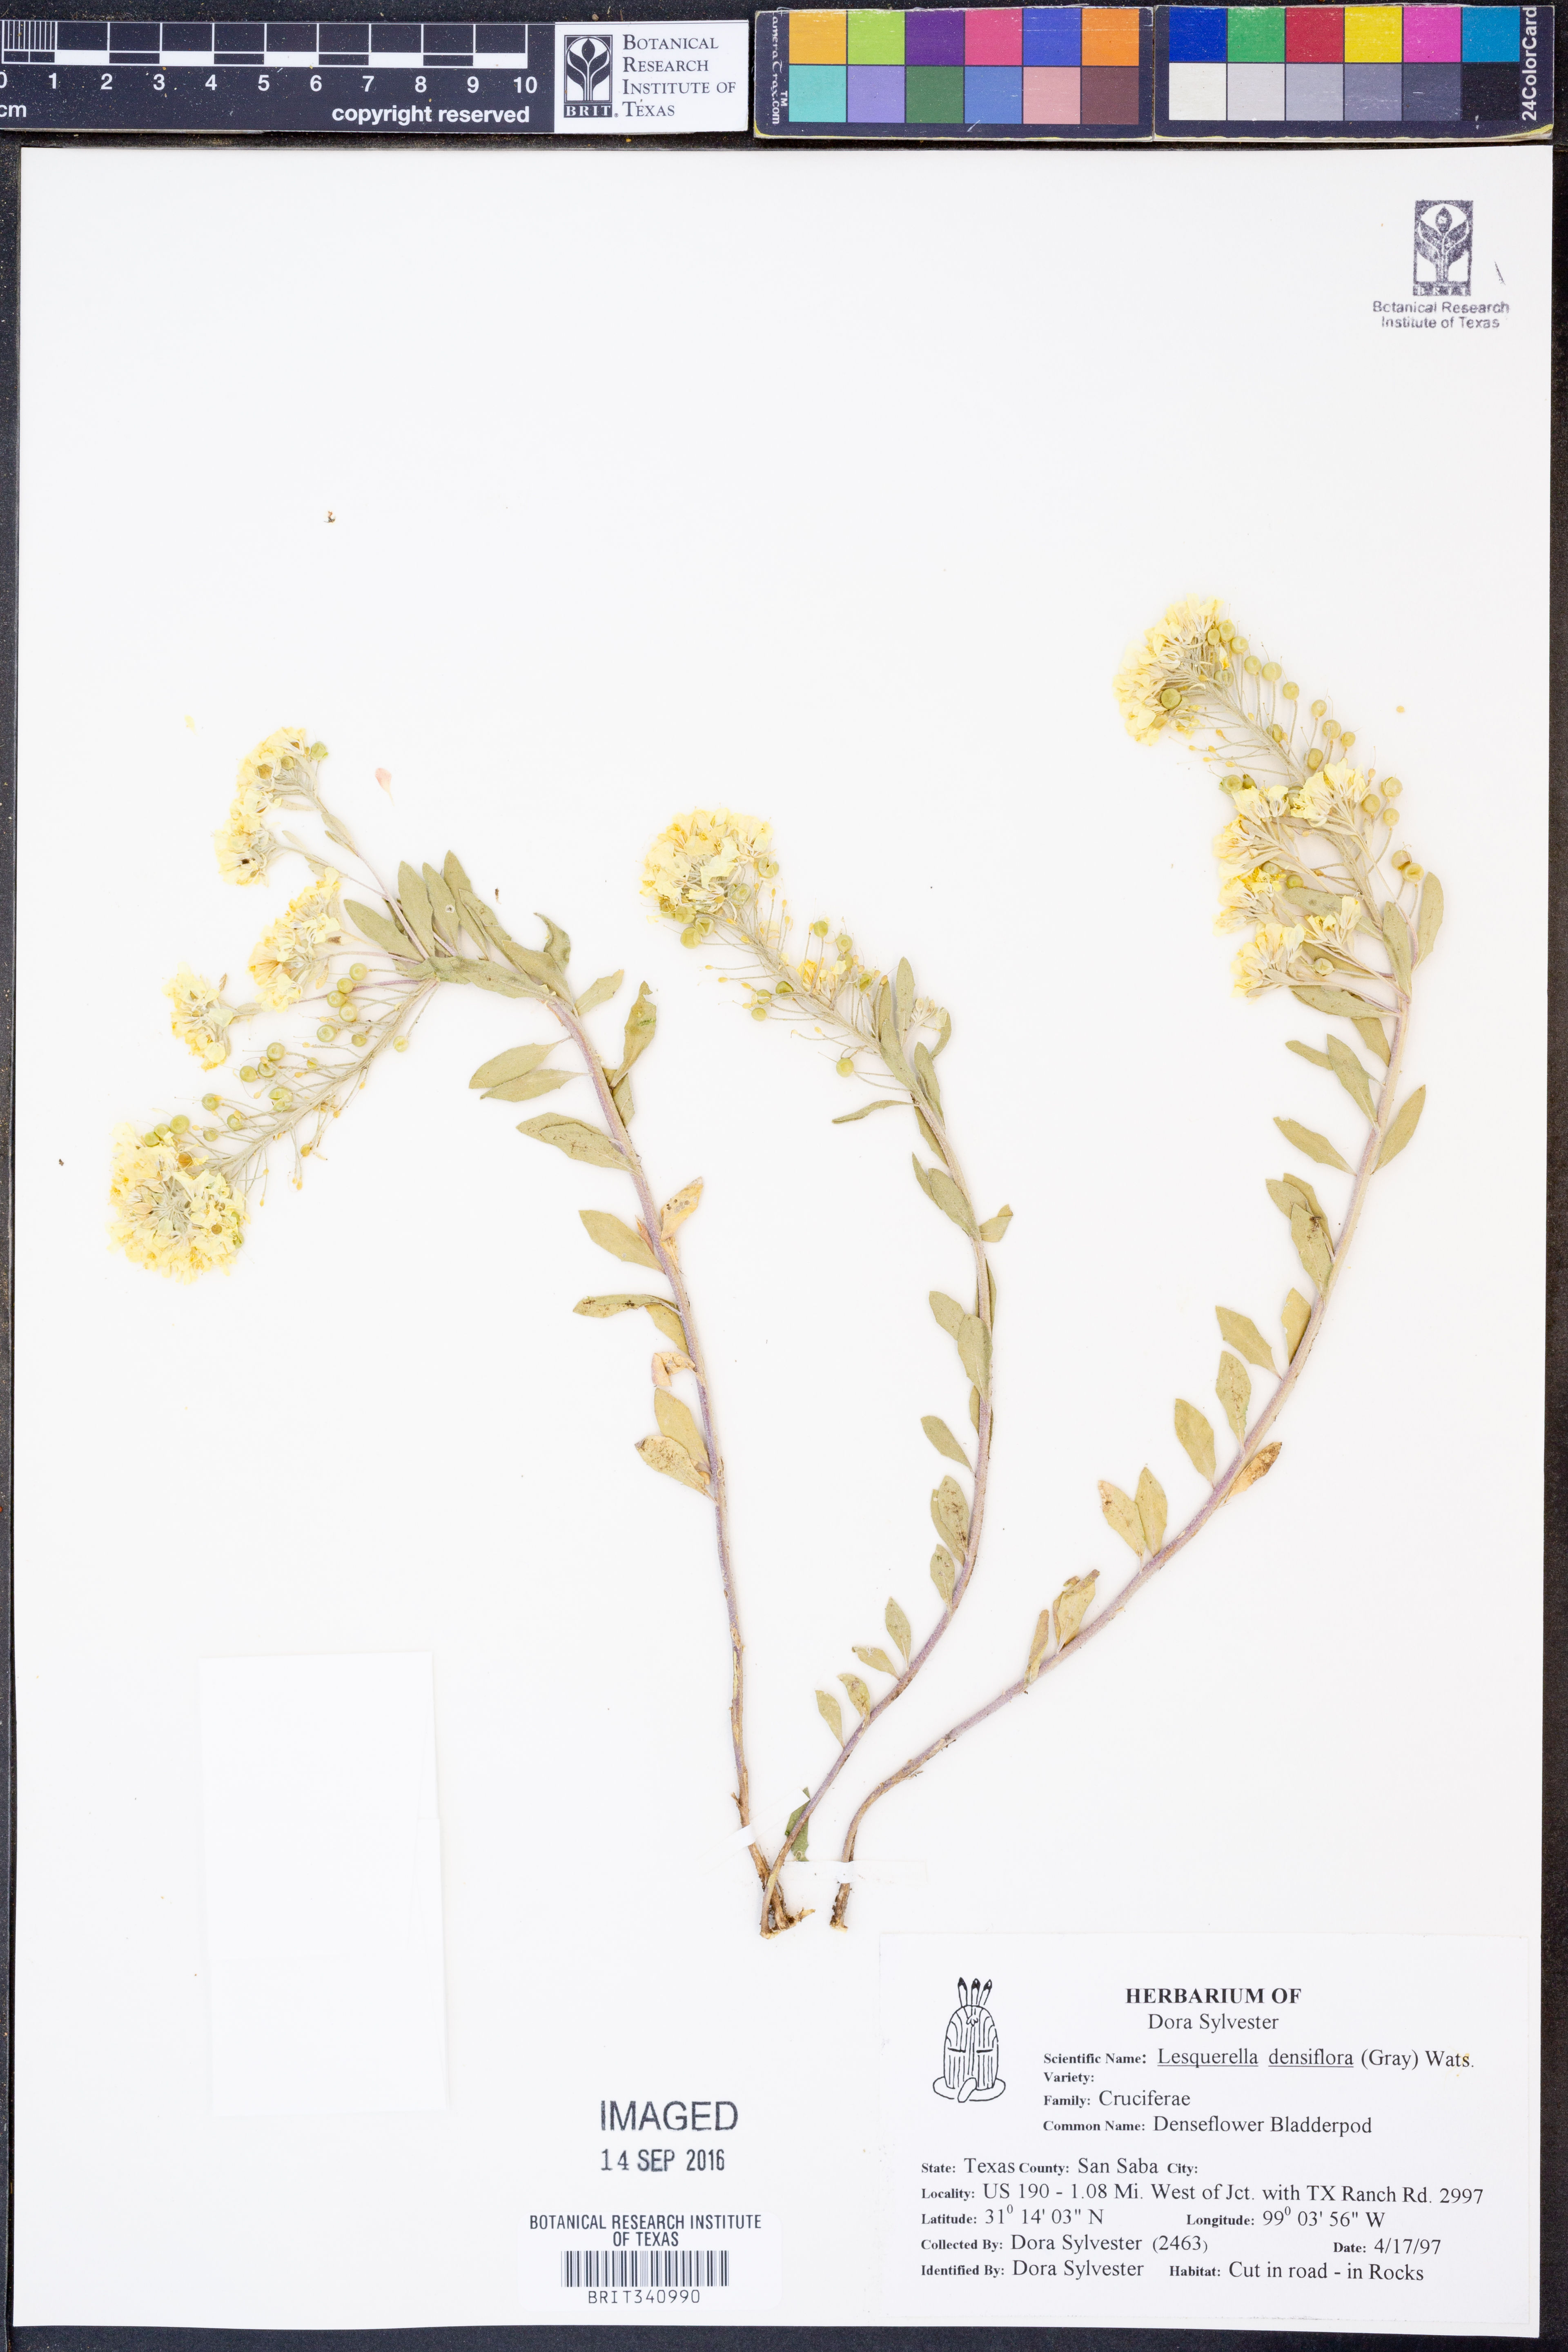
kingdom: Plantae
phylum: Tracheophyta
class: Magnoliopsida
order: Brassicales
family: Brassicaceae
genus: Physaria
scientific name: Physaria densiflora
